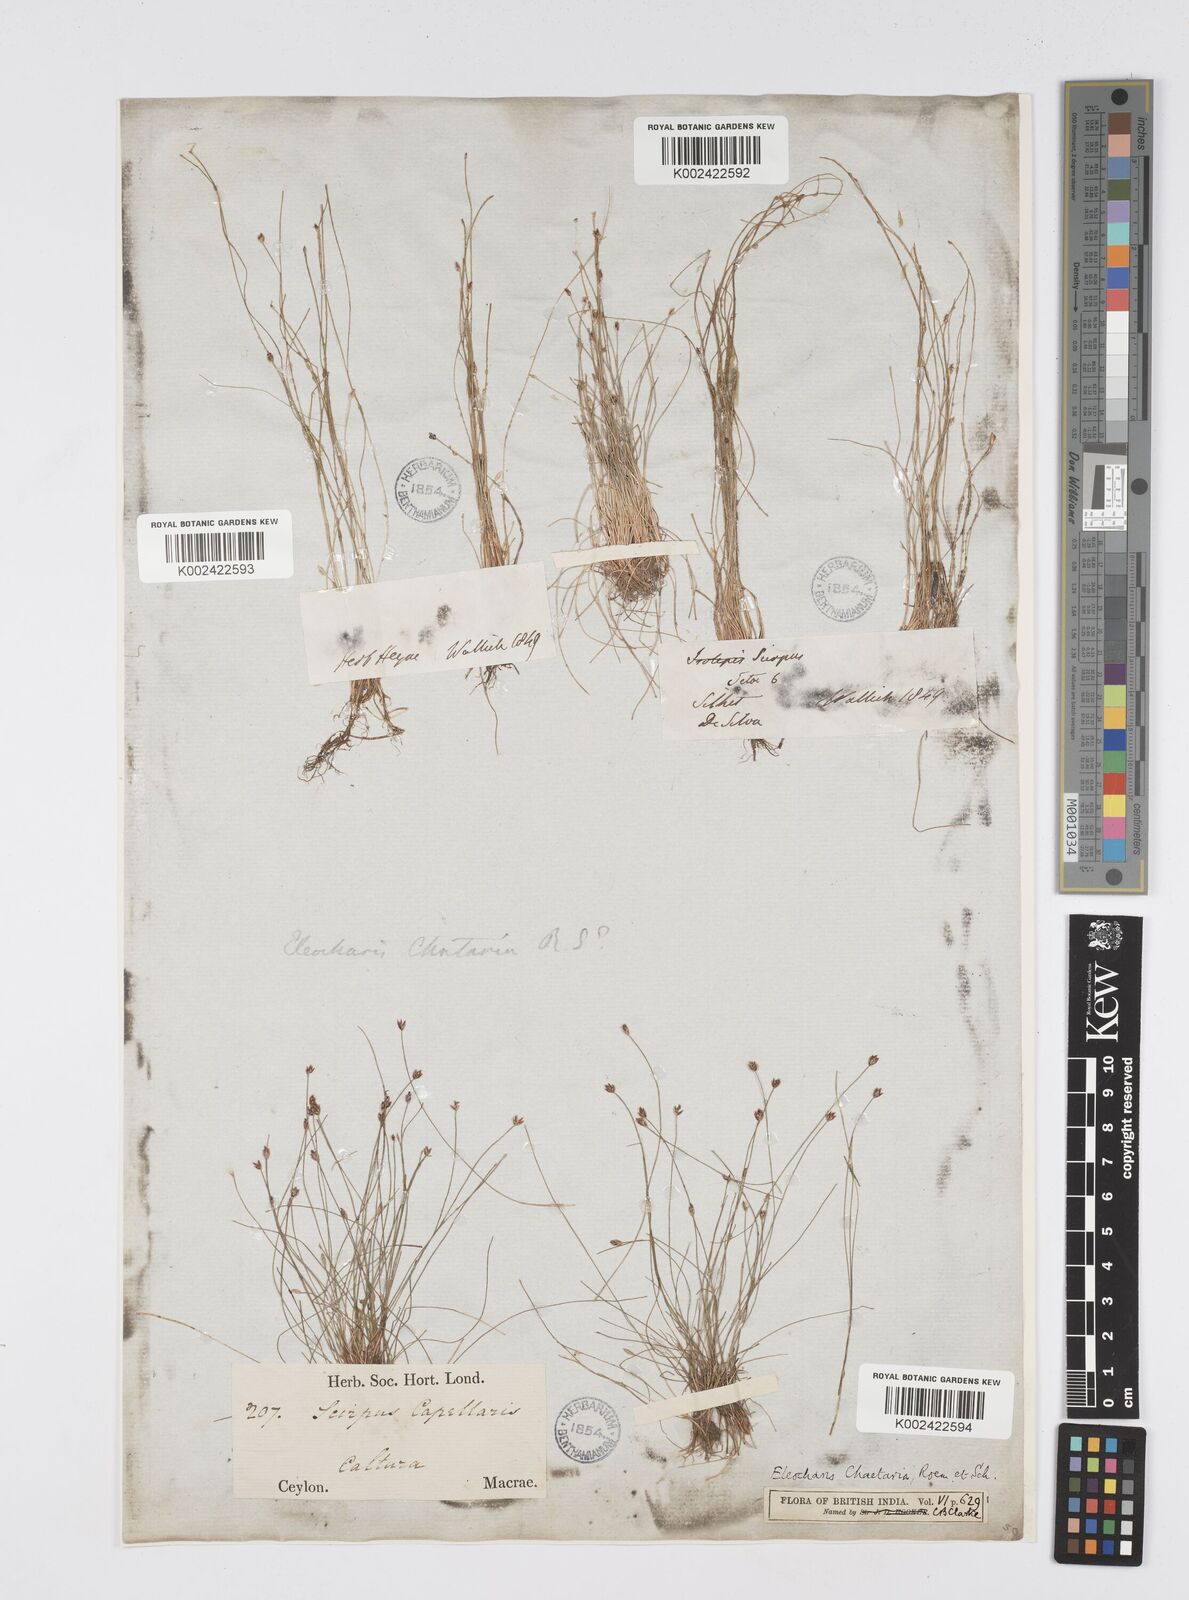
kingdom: Plantae
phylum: Tracheophyta
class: Liliopsida
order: Poales
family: Cyperaceae
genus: Eleocharis
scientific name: Eleocharis retroflexa
